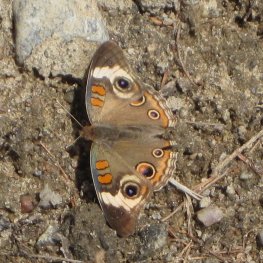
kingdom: Animalia
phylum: Arthropoda
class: Insecta
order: Lepidoptera
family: Nymphalidae
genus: Junonia
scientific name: Junonia coenia
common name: Common Buckeye
